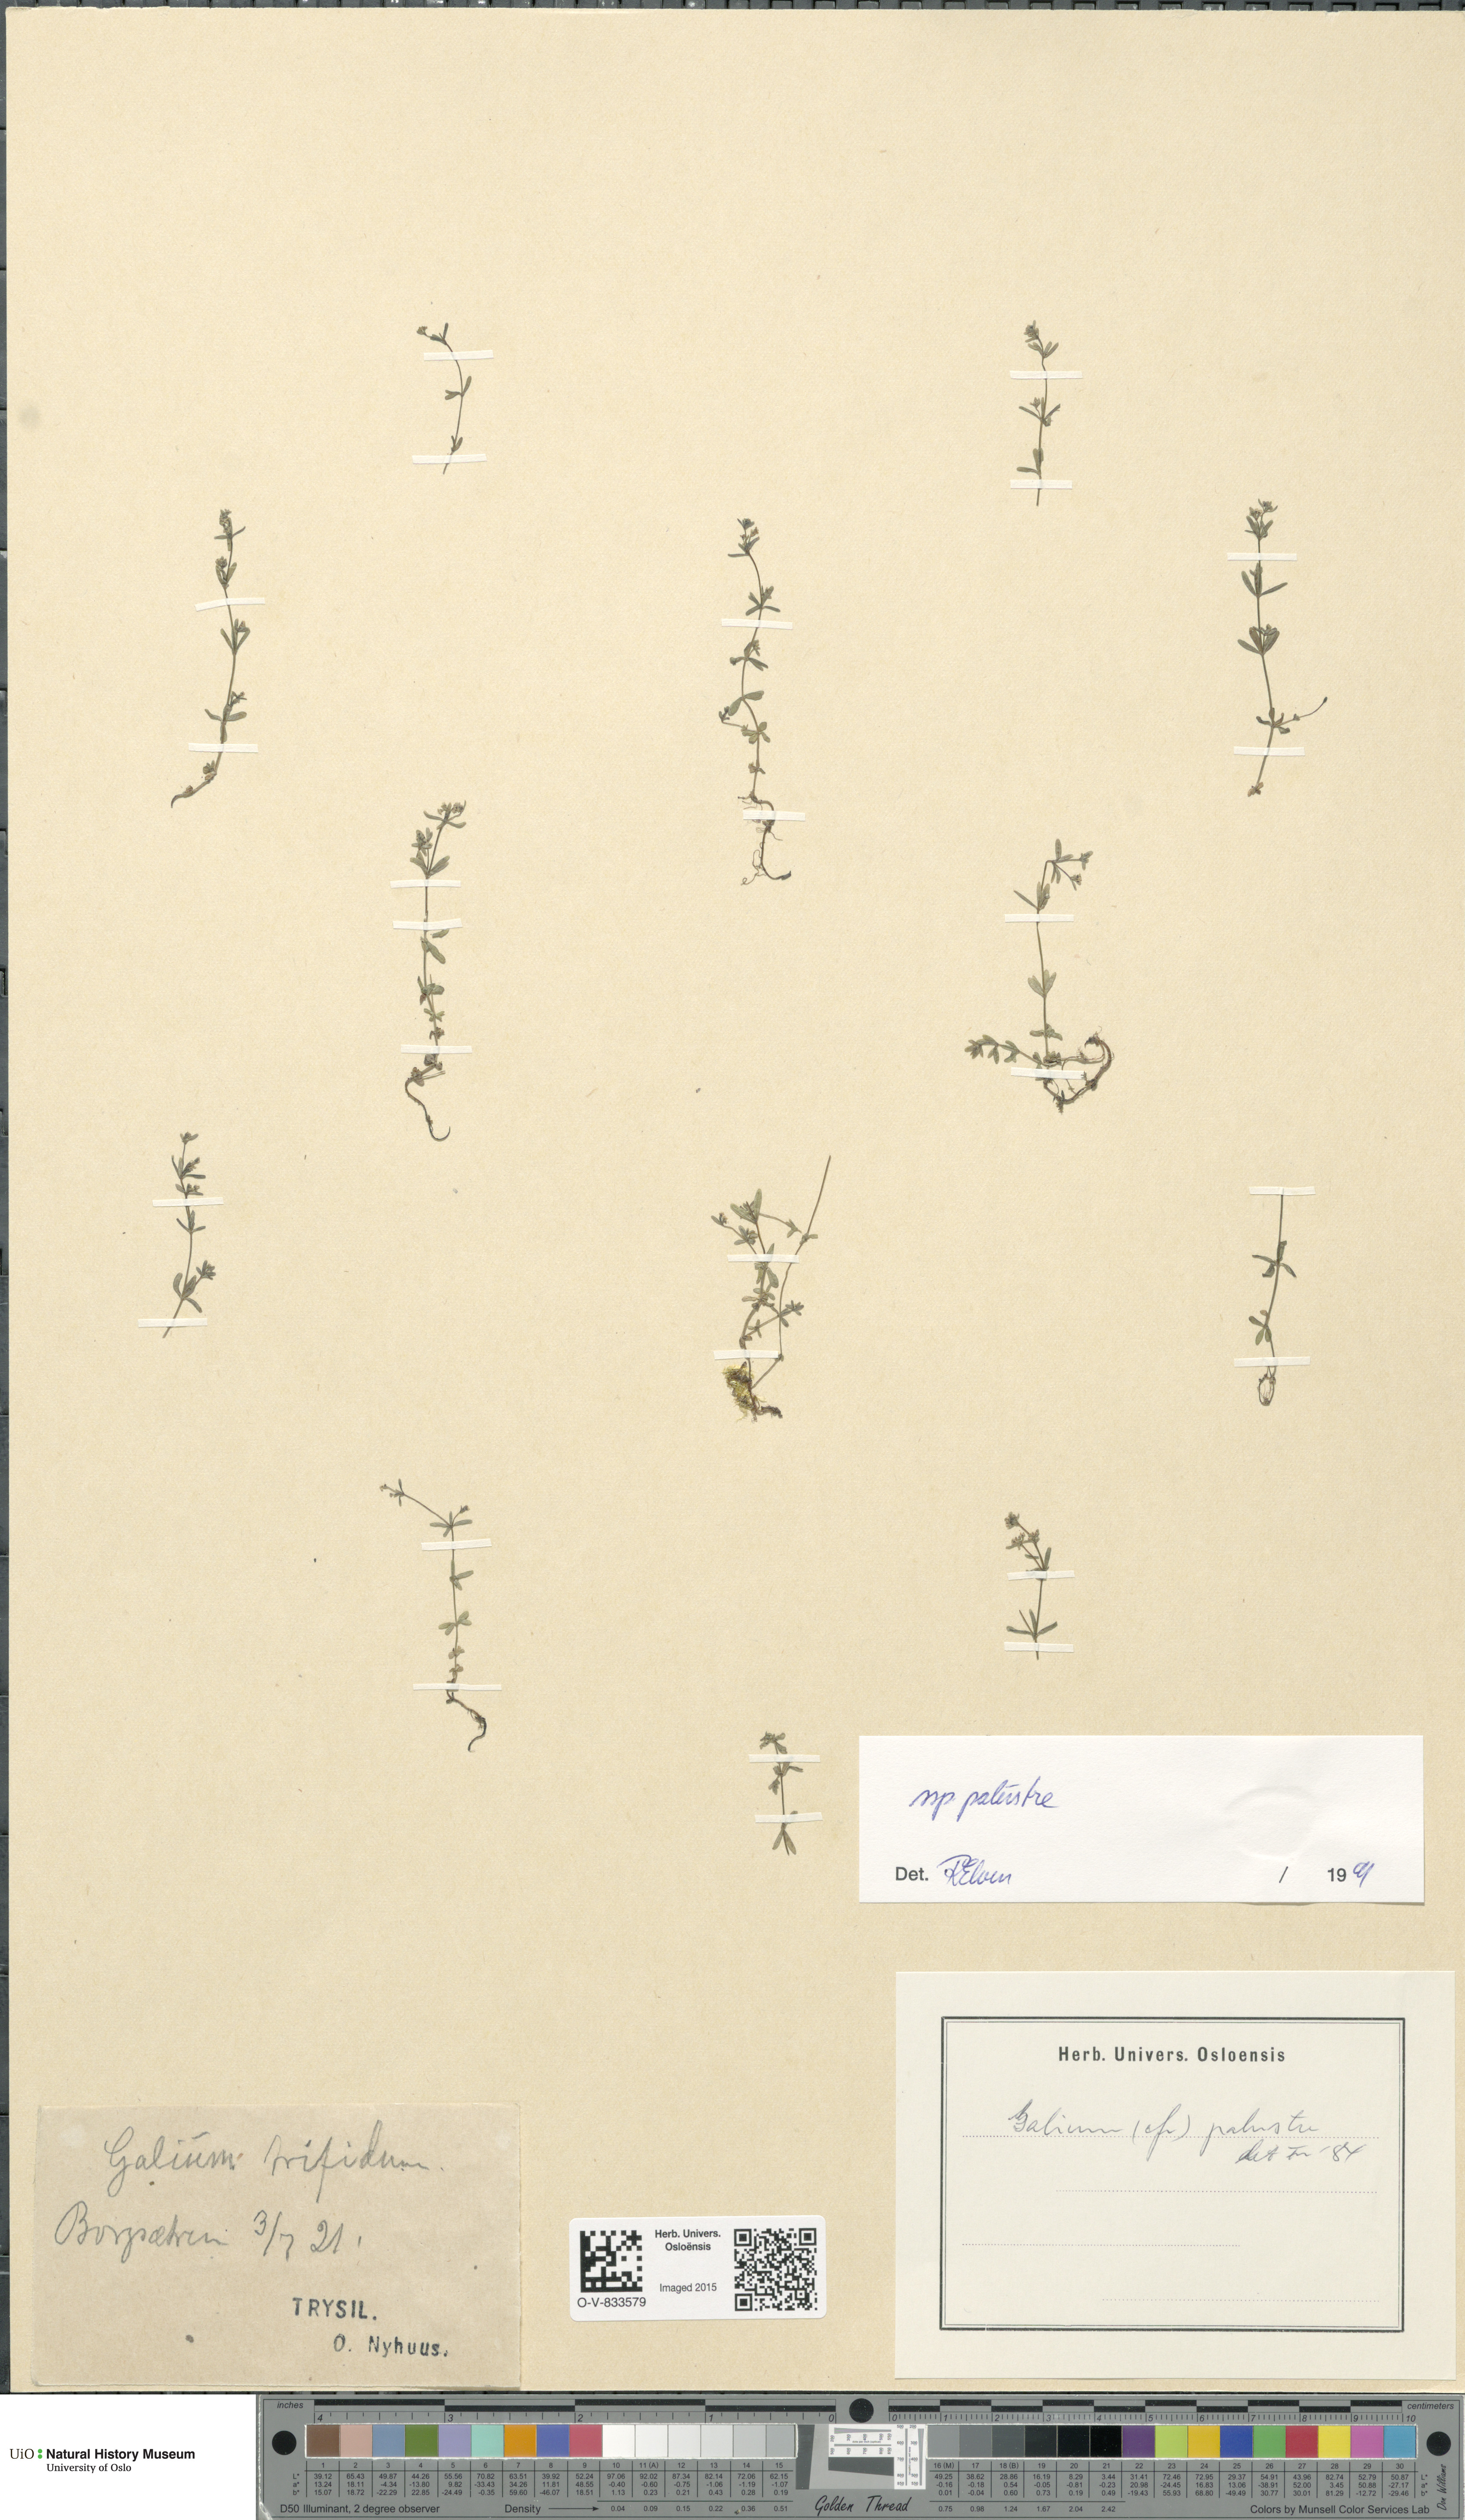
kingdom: Plantae
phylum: Tracheophyta
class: Magnoliopsida
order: Gentianales
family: Rubiaceae
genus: Galium
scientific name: Galium palustre
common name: Common marsh-bedstraw
